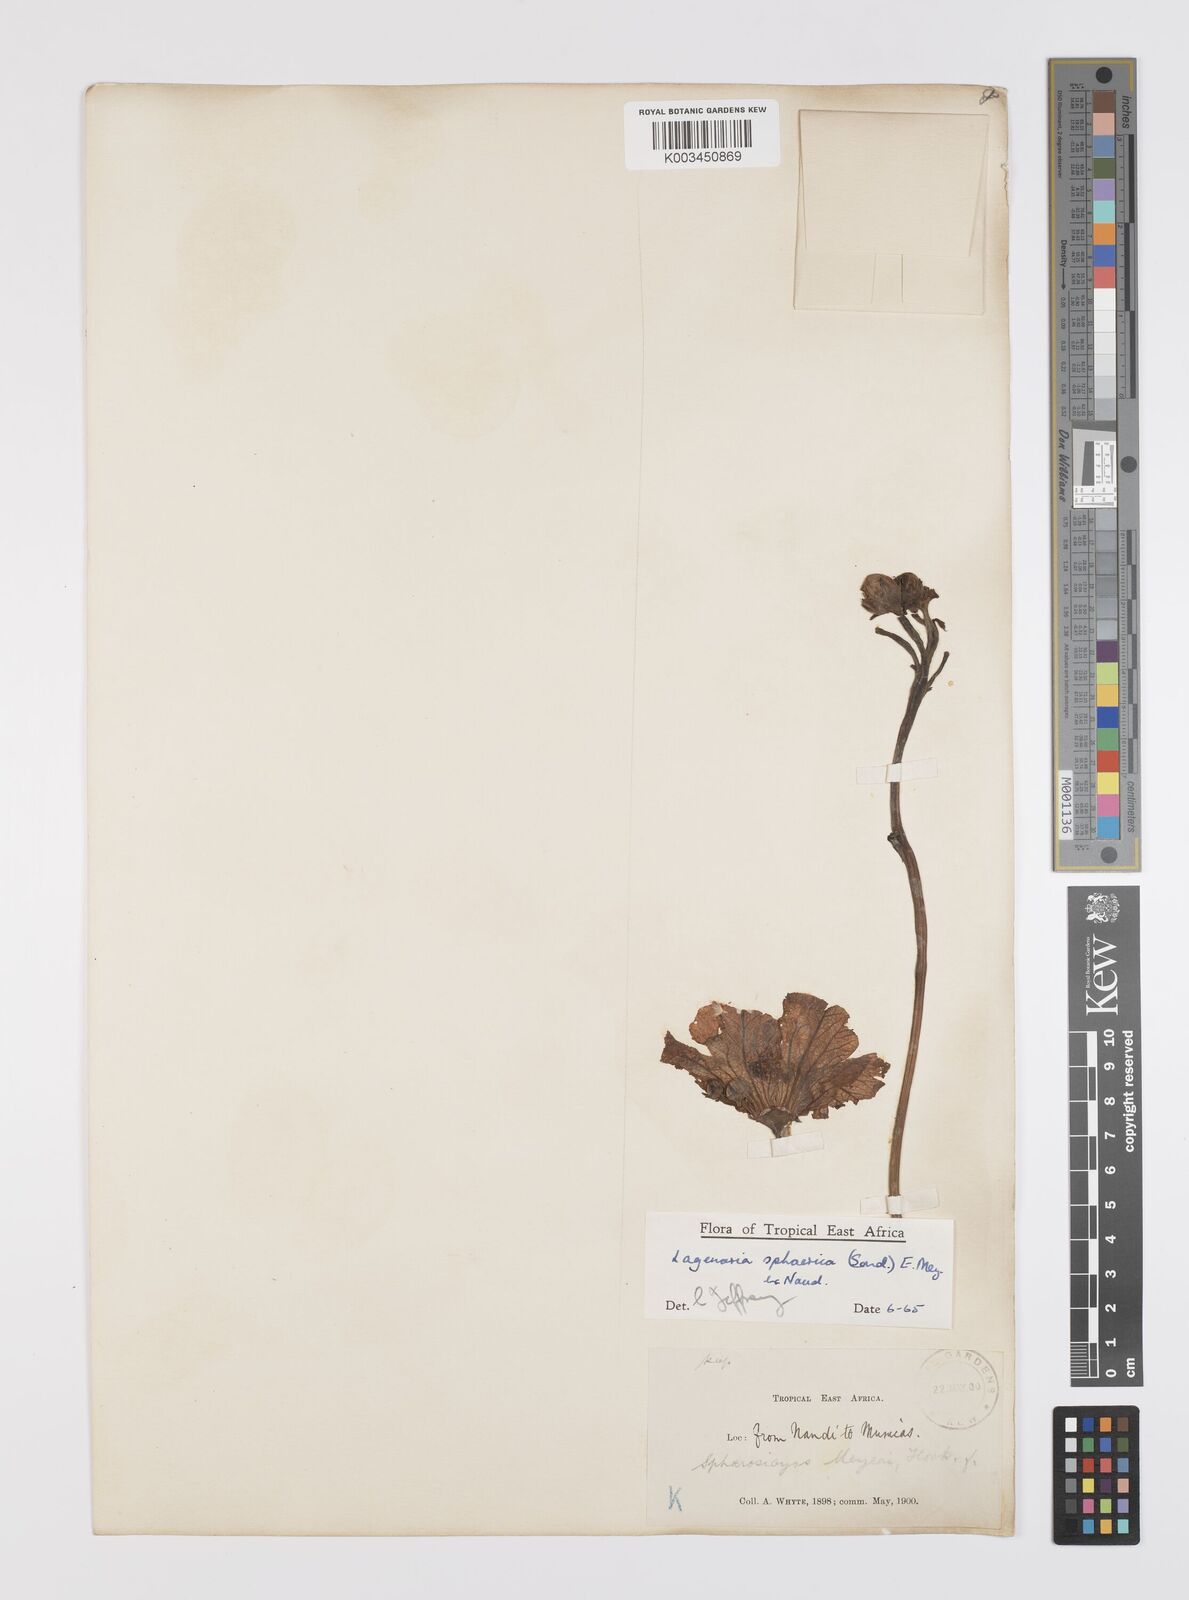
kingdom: Plantae
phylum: Tracheophyta
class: Magnoliopsida
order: Cucurbitales
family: Cucurbitaceae
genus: Lagenaria
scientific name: Lagenaria sphaerica
